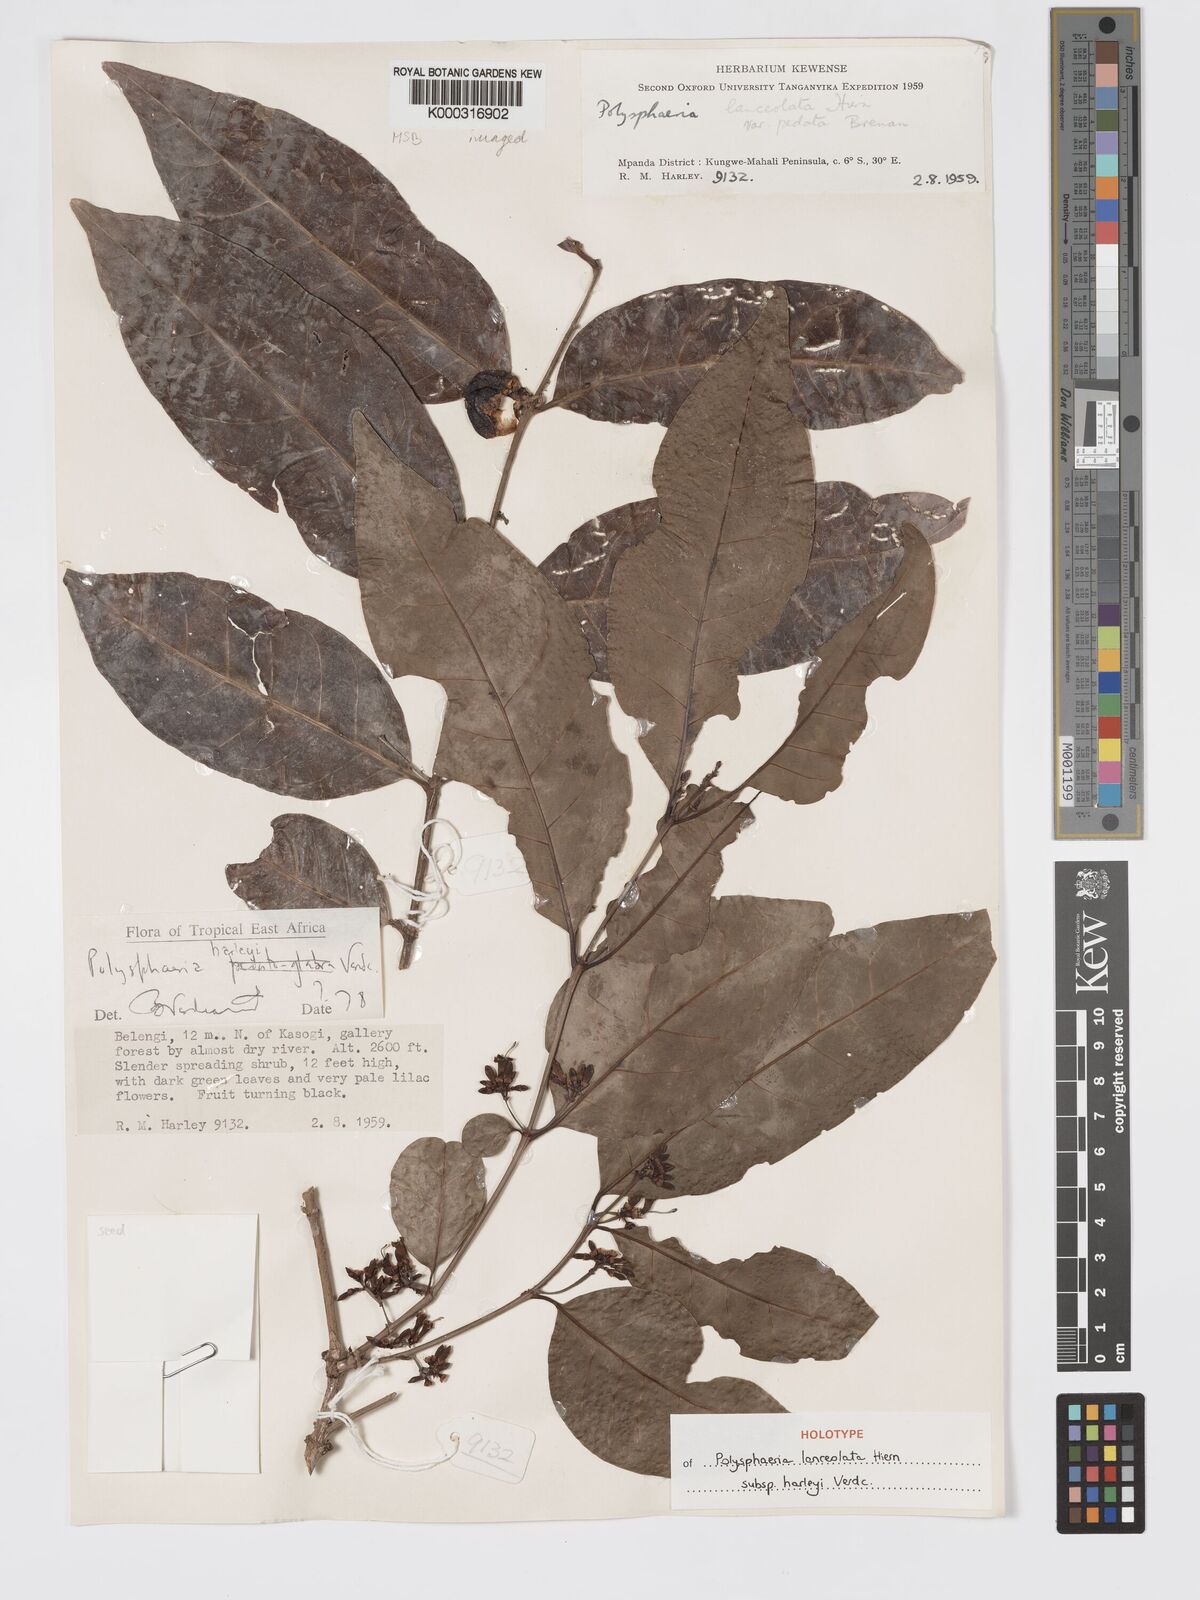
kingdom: Plantae
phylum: Tracheophyta
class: Magnoliopsida
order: Gentianales
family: Rubiaceae
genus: Polysphaeria
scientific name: Polysphaeria lanceolata
